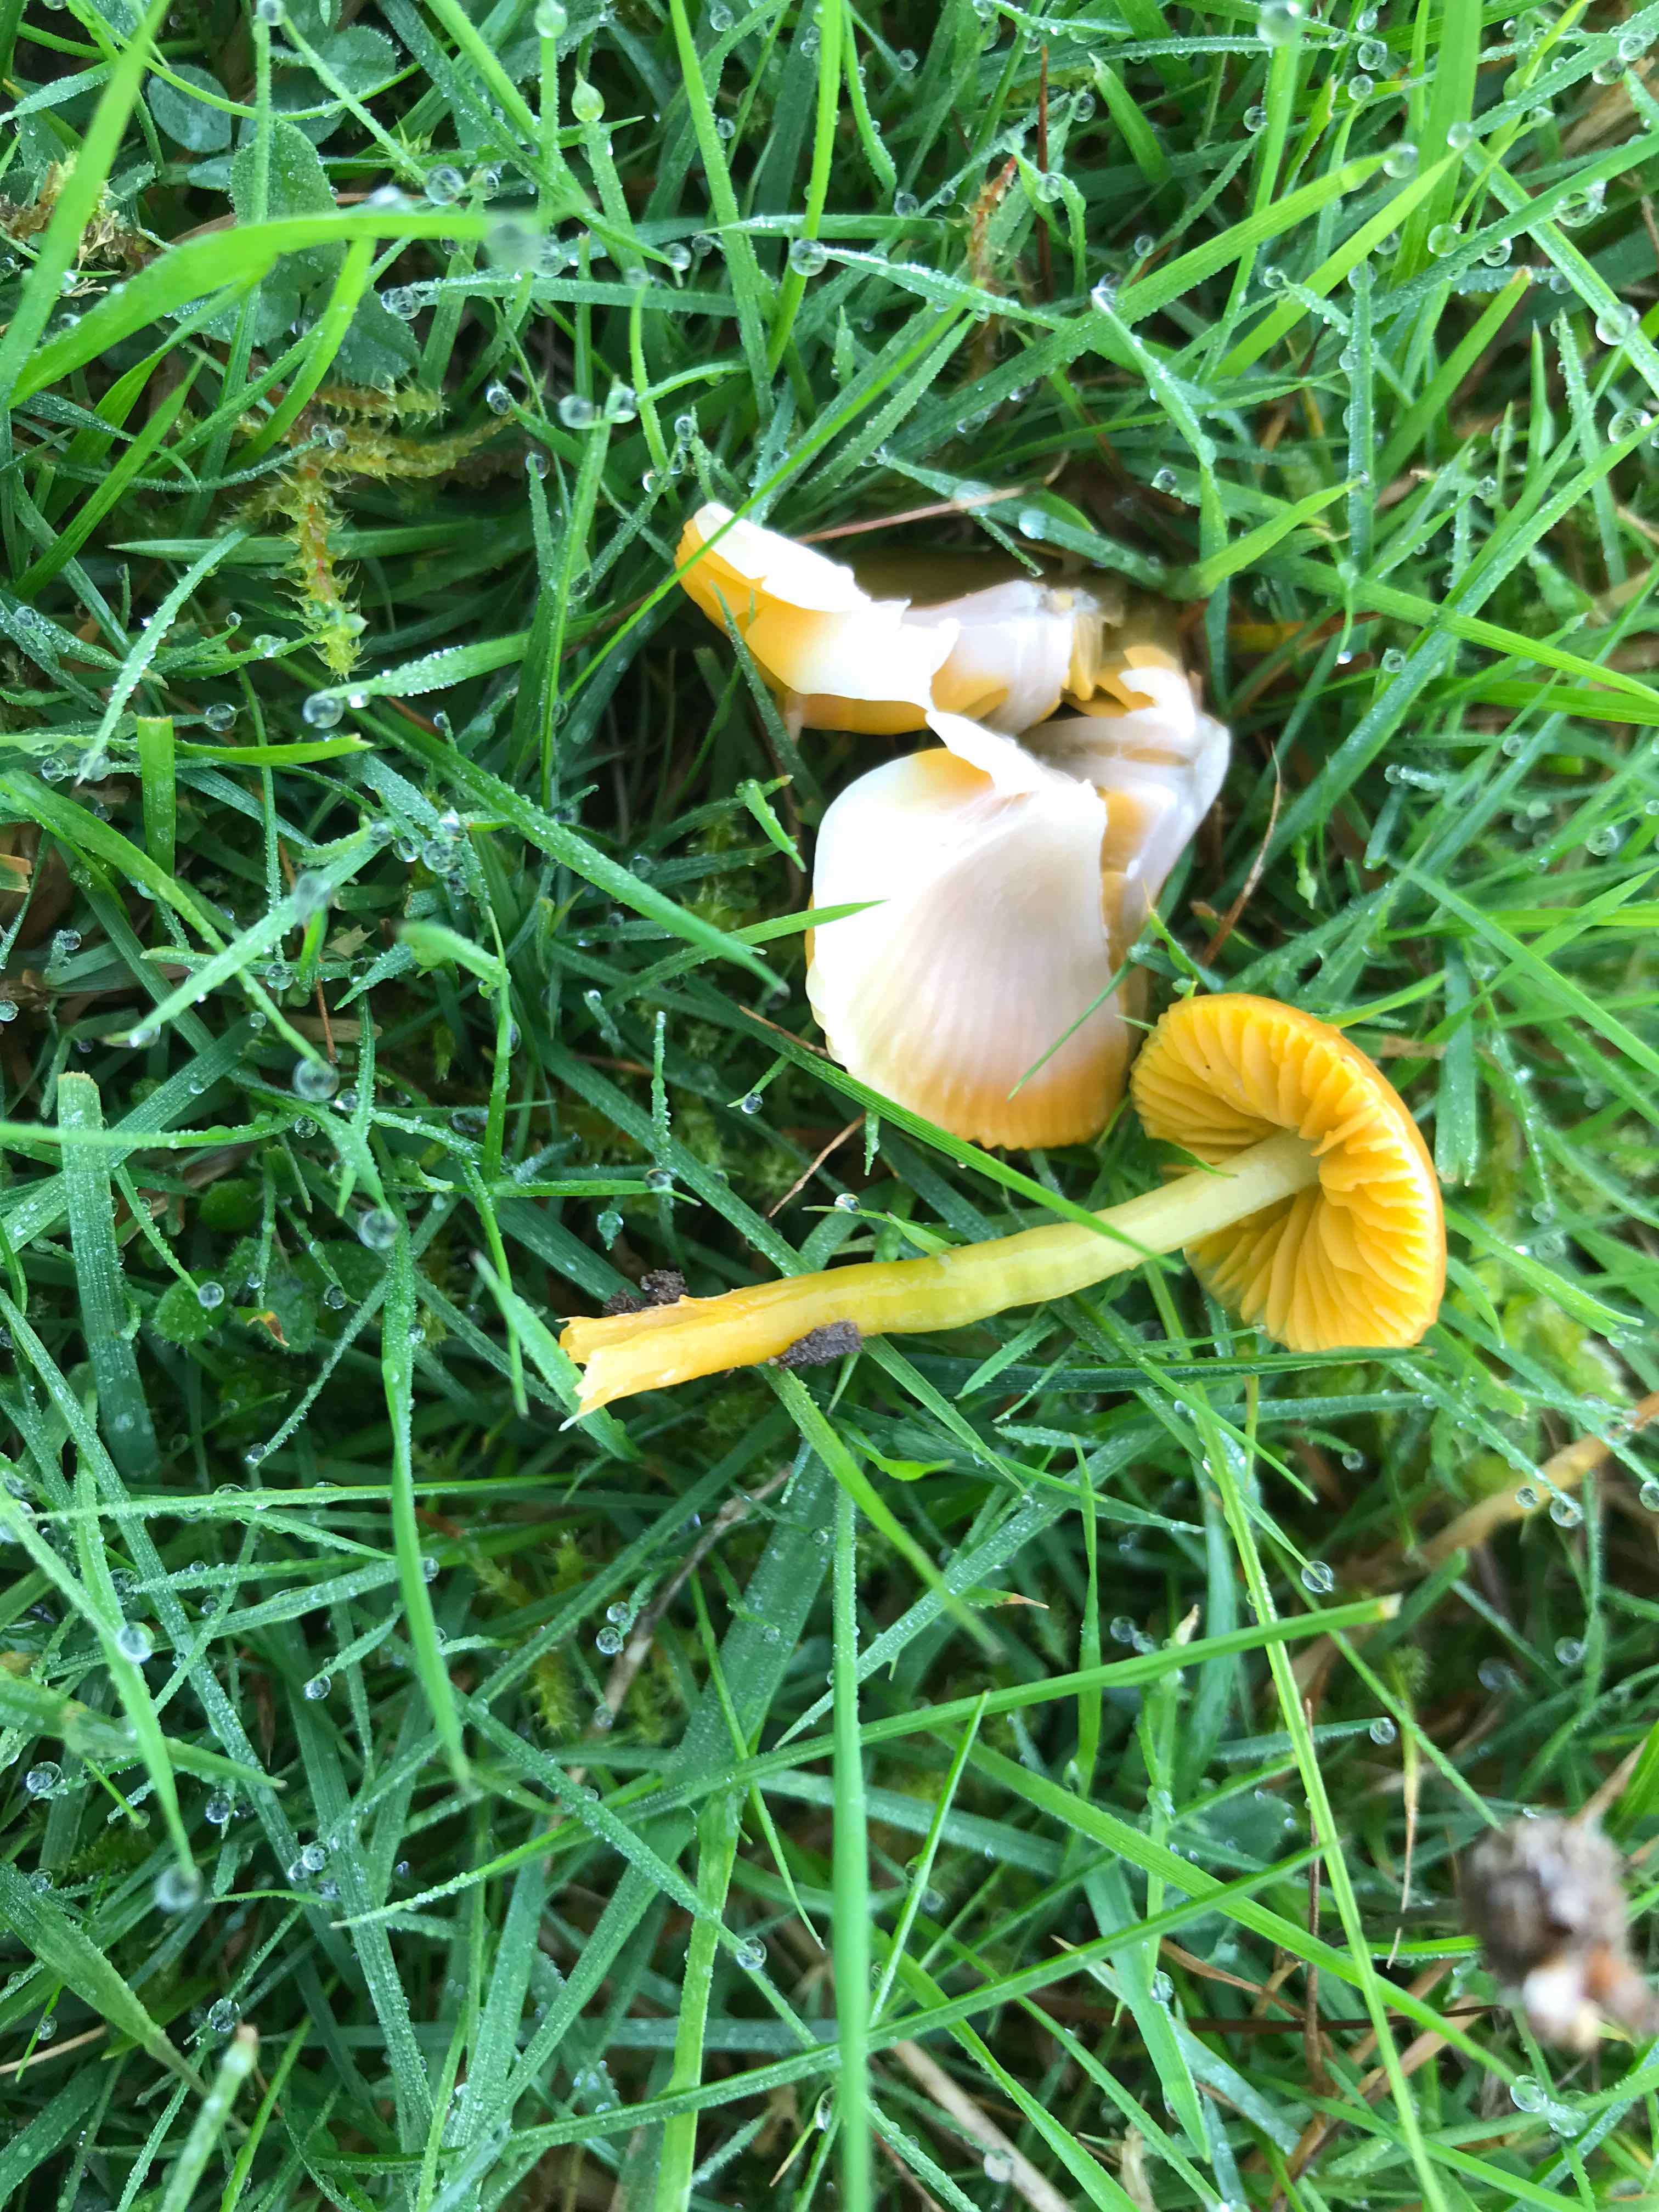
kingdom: Fungi
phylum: Basidiomycota
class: Agaricomycetes
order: Agaricales
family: Hygrophoraceae
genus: Gliophorus
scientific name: Gliophorus psittacinus
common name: papegøje-vokshat
